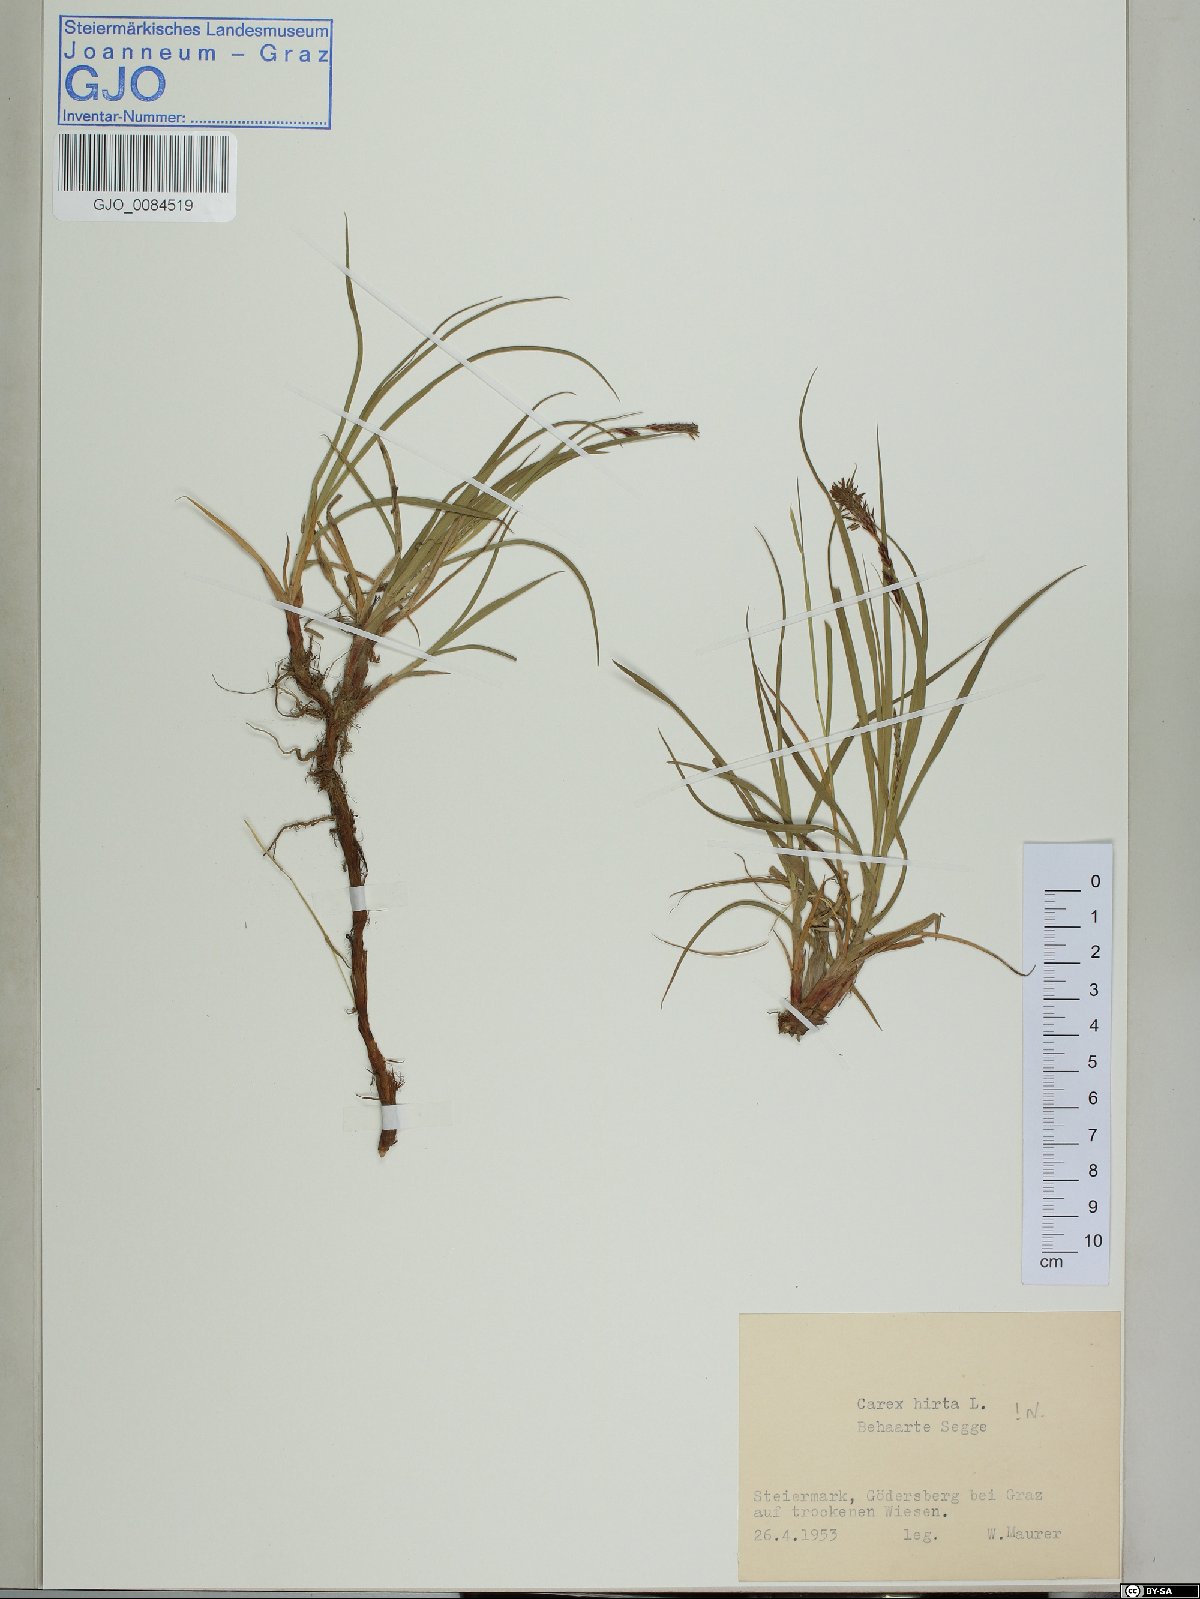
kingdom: Plantae
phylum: Tracheophyta
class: Liliopsida
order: Poales
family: Cyperaceae
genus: Carex
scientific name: Carex hirta
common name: Hairy sedge
